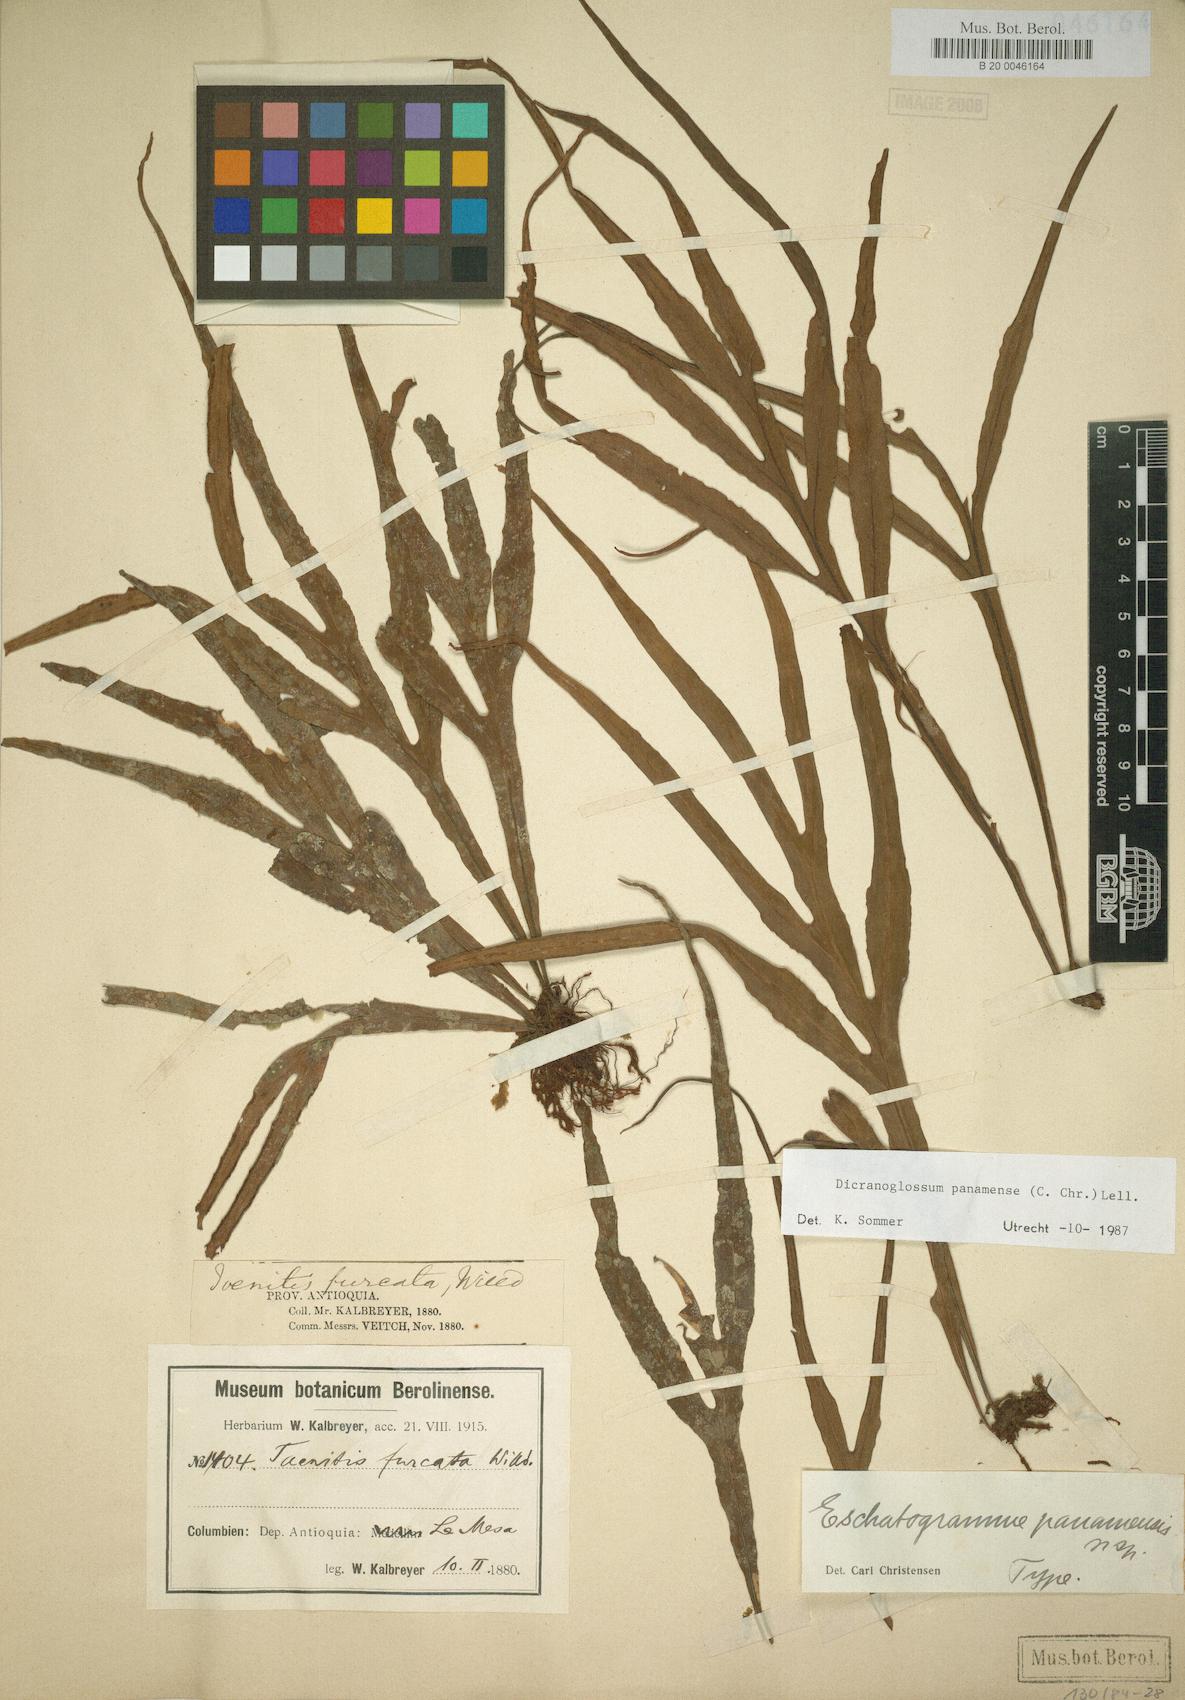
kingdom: Plantae
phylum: Tracheophyta
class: Polypodiopsida
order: Polypodiales
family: Polypodiaceae
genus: Pleopeltis
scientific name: Pleopeltis christensenii
